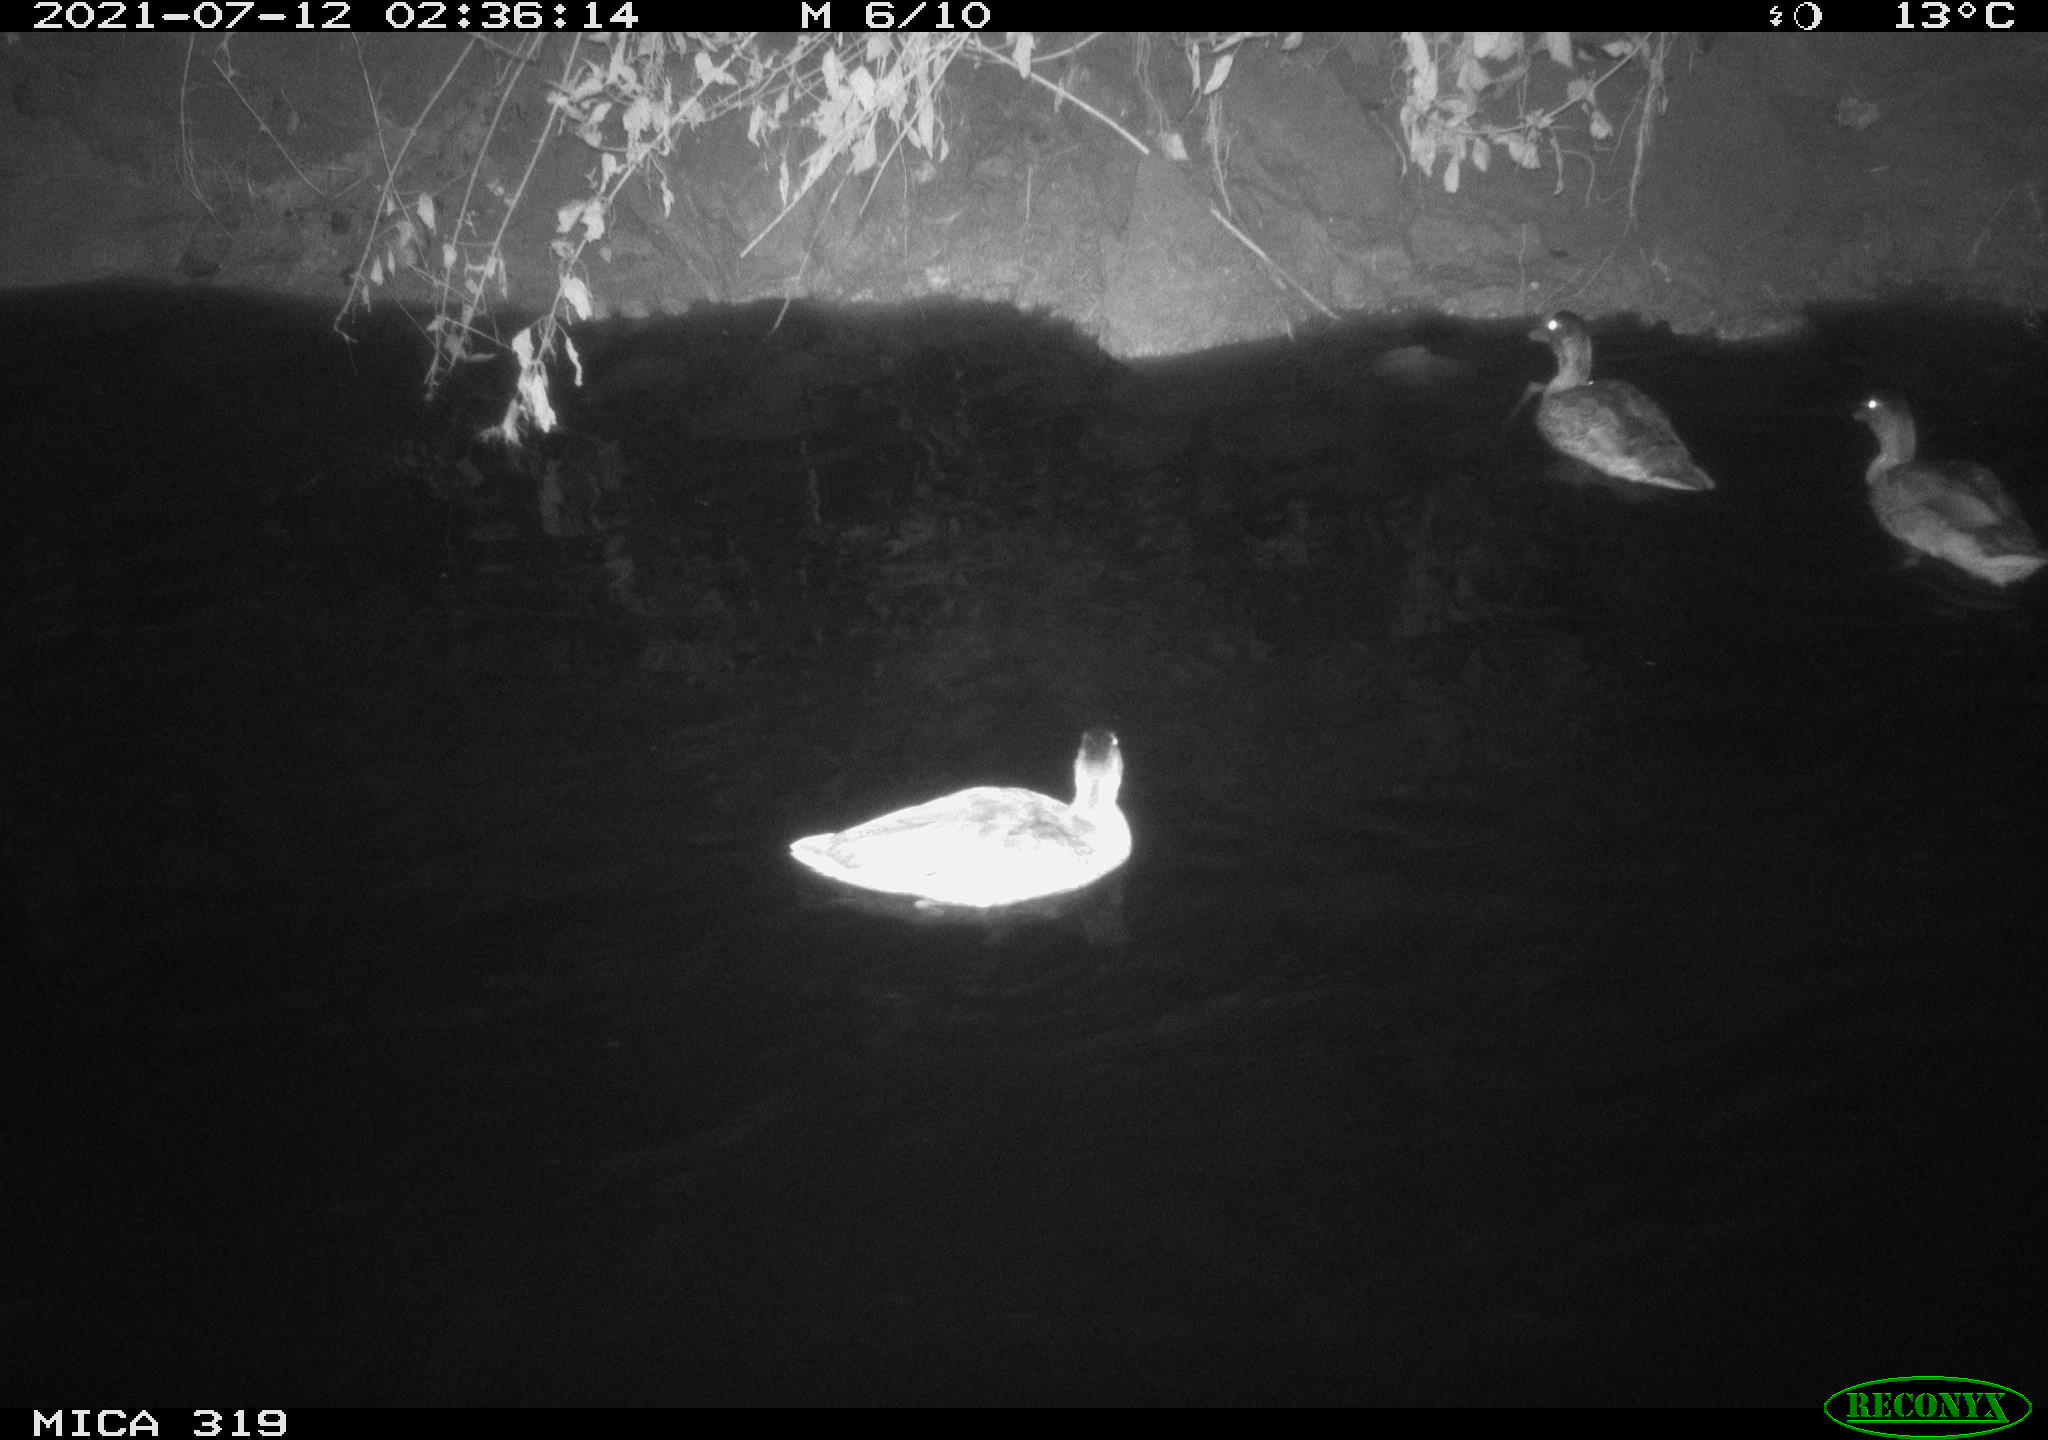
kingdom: Animalia
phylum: Chordata
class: Aves
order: Anseriformes
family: Anatidae
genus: Anas
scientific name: Anas platyrhynchos
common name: Mallard
